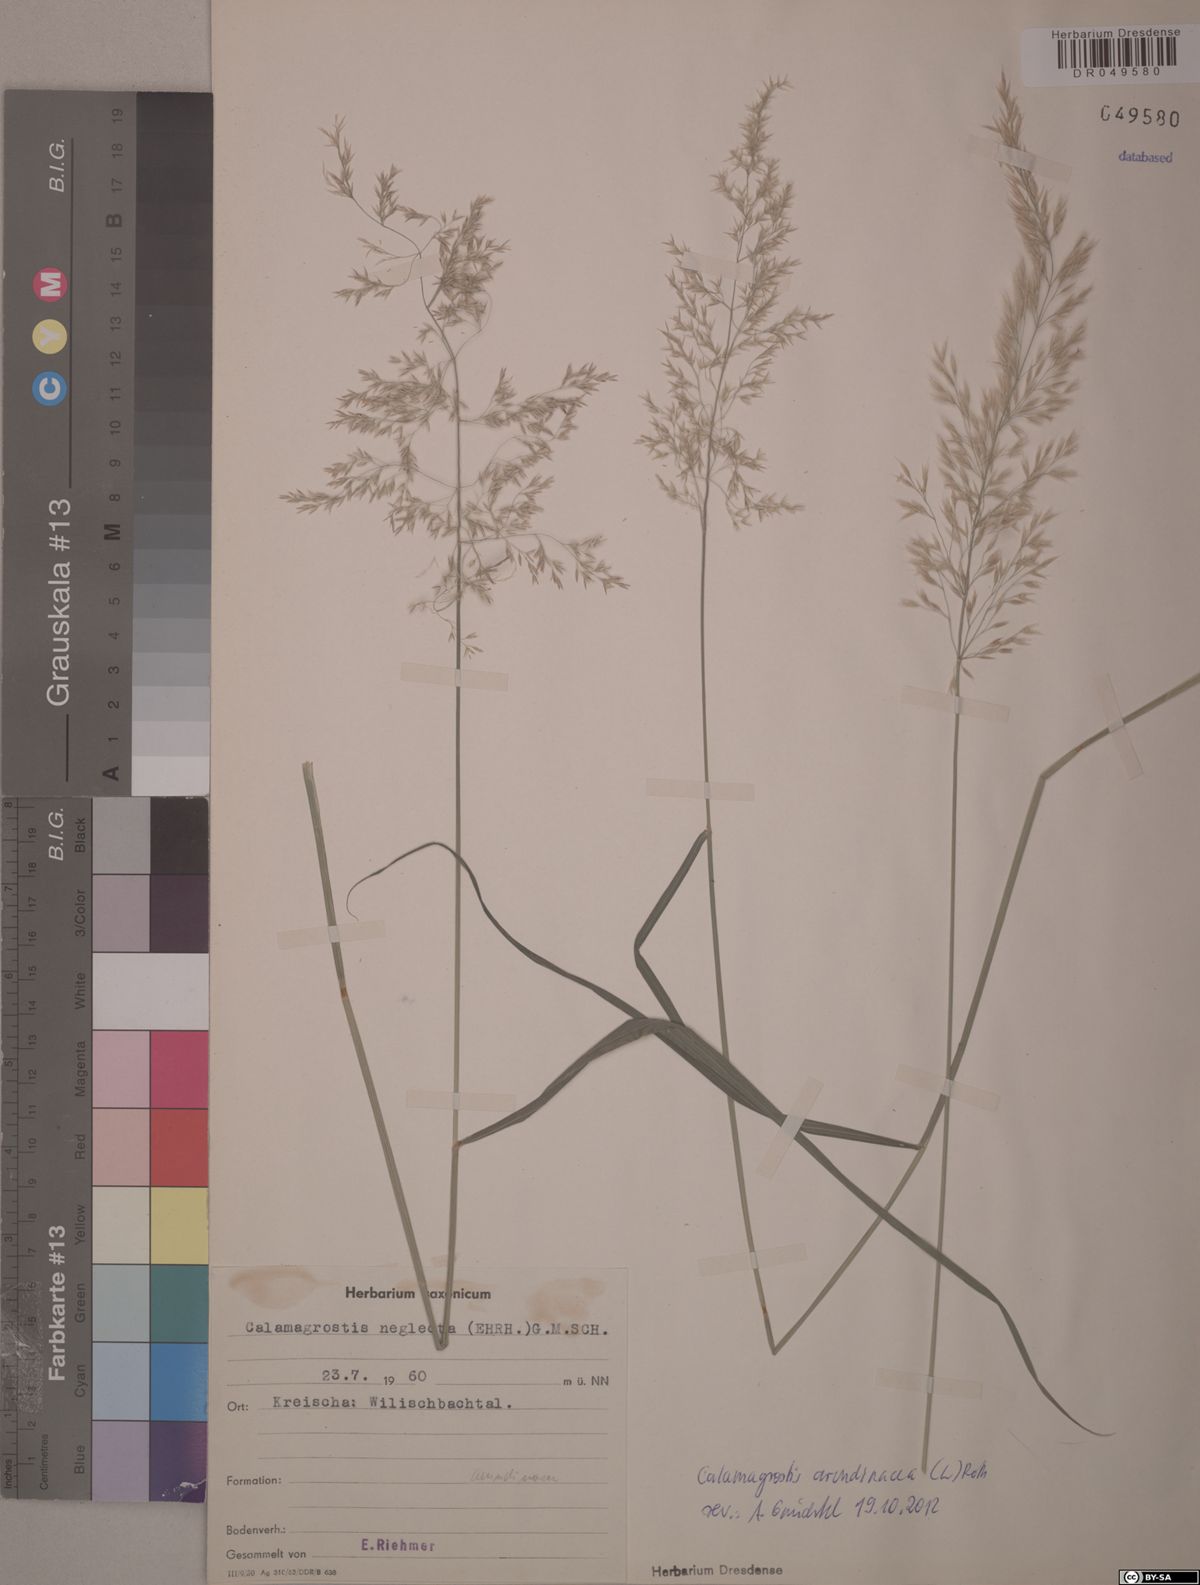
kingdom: Plantae
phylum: Tracheophyta
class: Liliopsida
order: Poales
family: Poaceae
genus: Calamagrostis
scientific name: Calamagrostis arundinacea
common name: Metskastik
